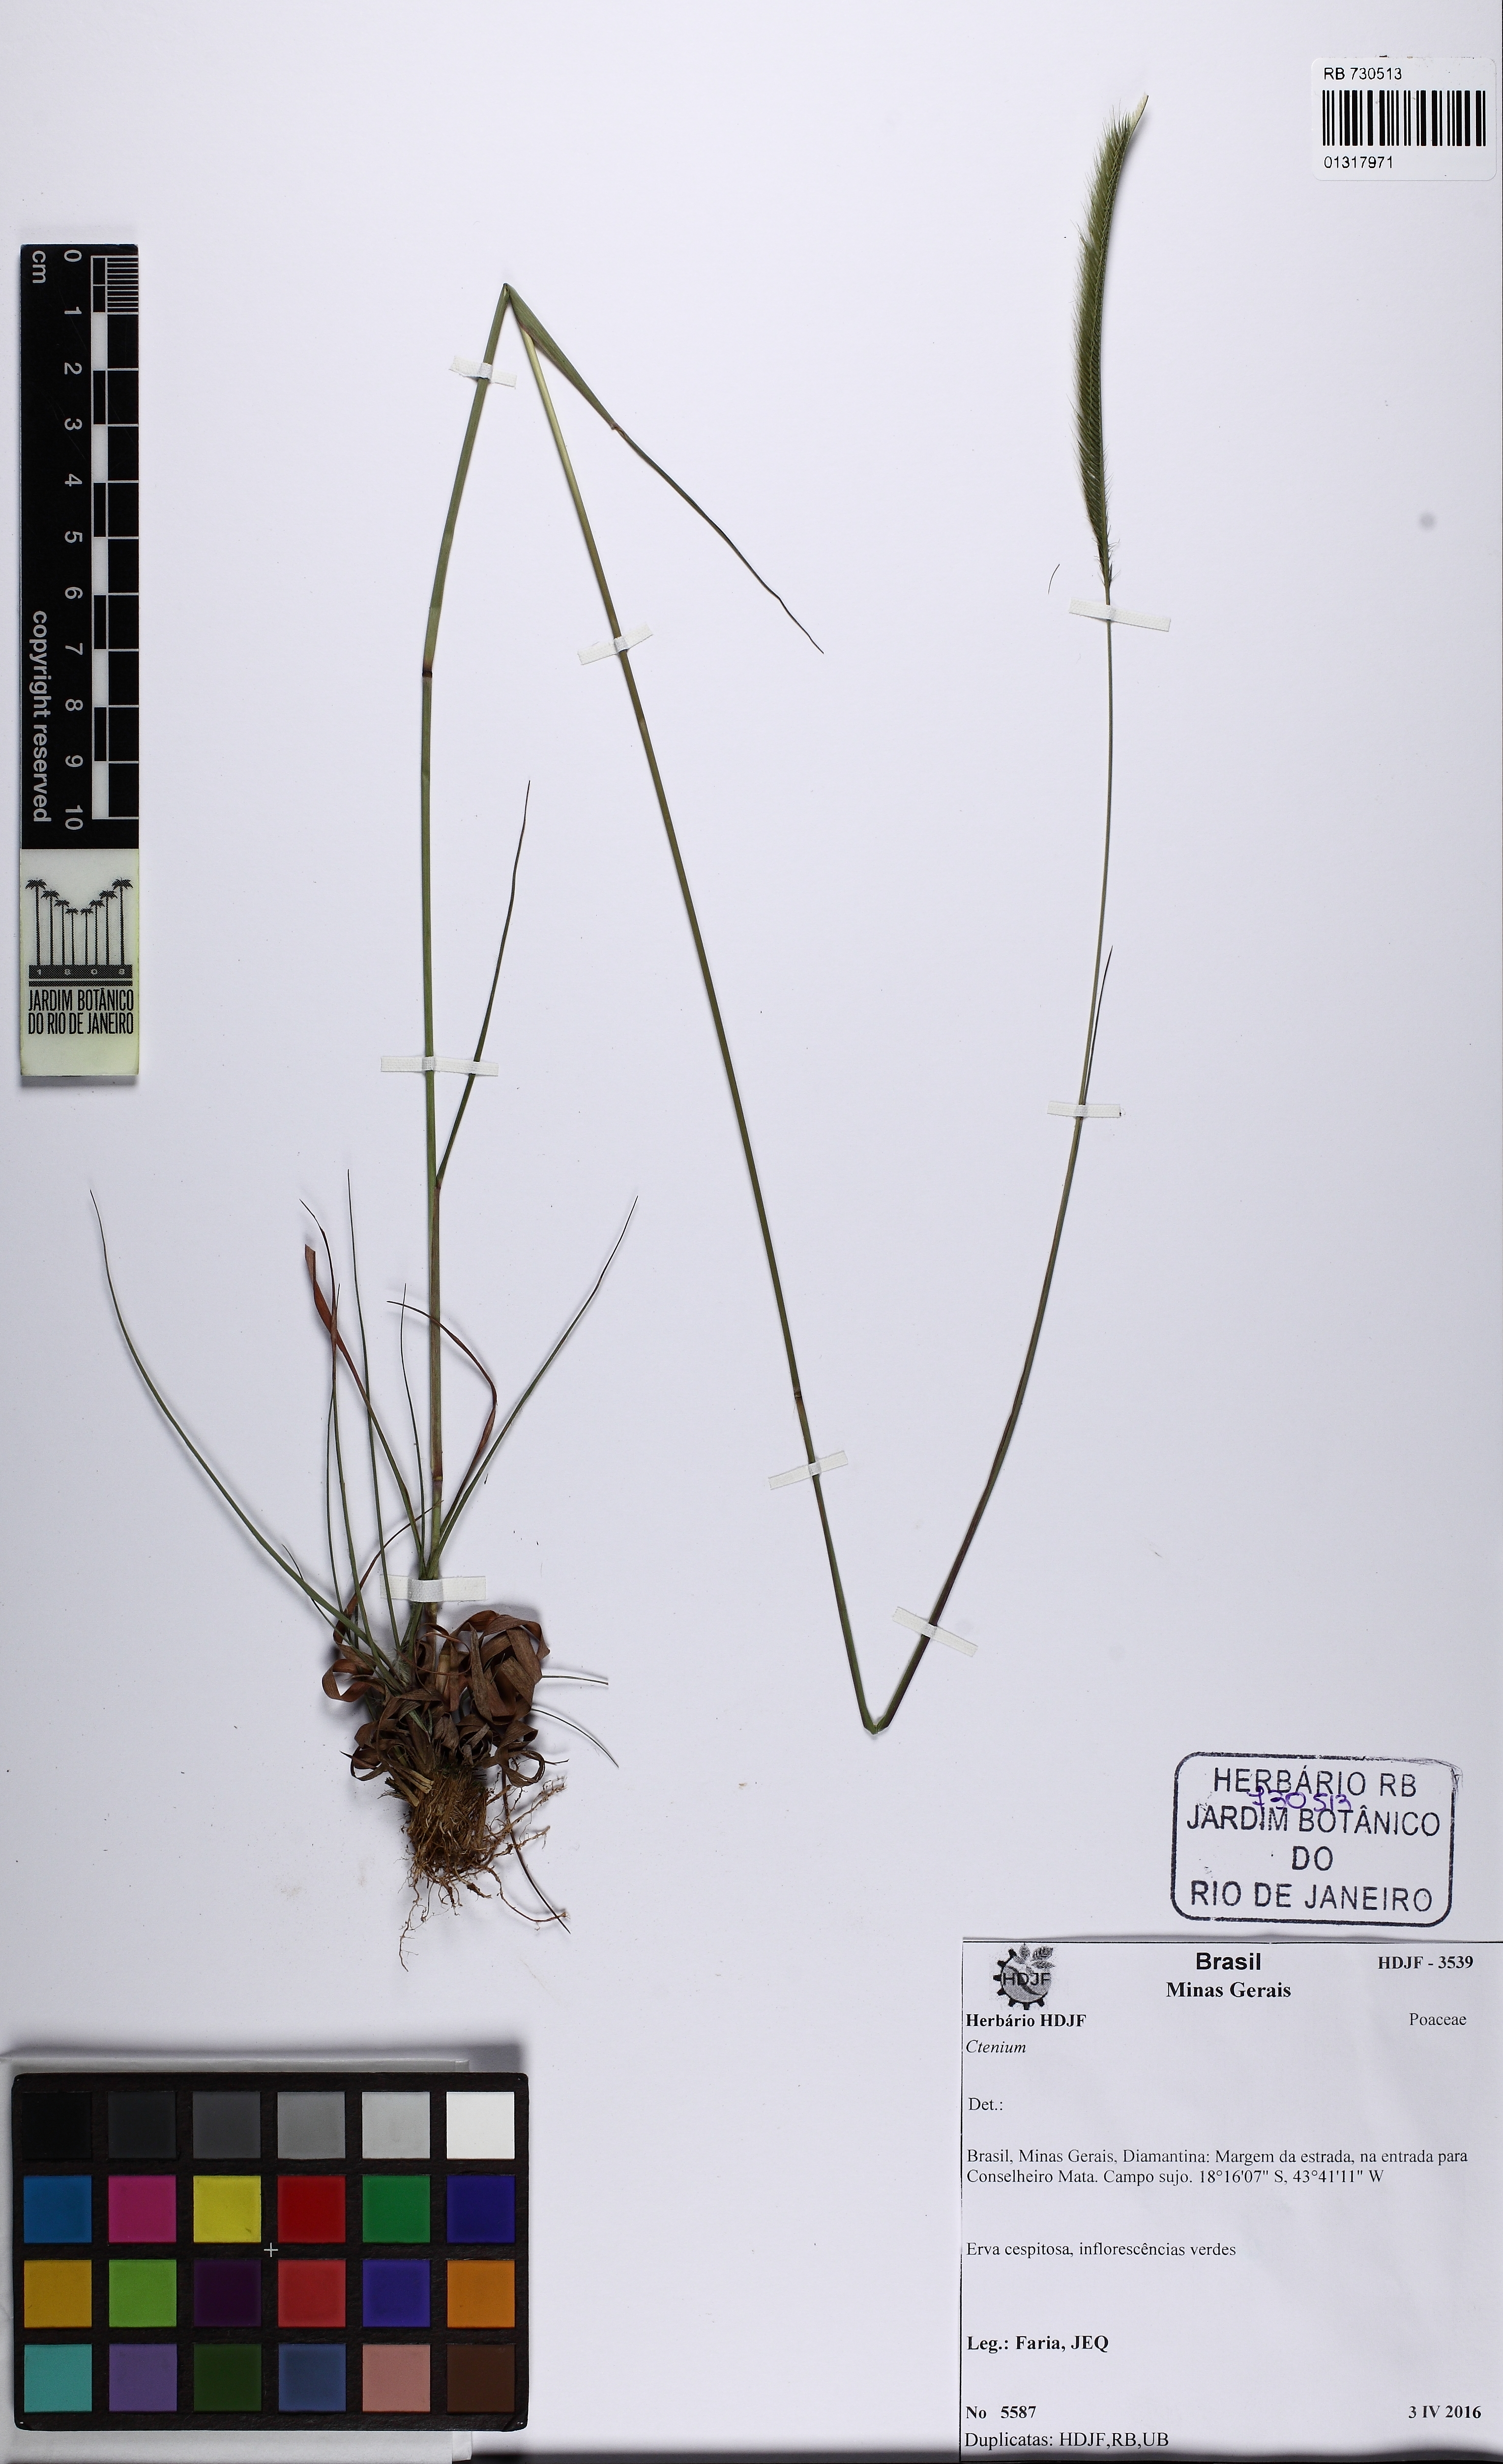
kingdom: Plantae
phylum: Tracheophyta
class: Liliopsida
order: Poales
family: Poaceae
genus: Ctenium
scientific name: Ctenium
